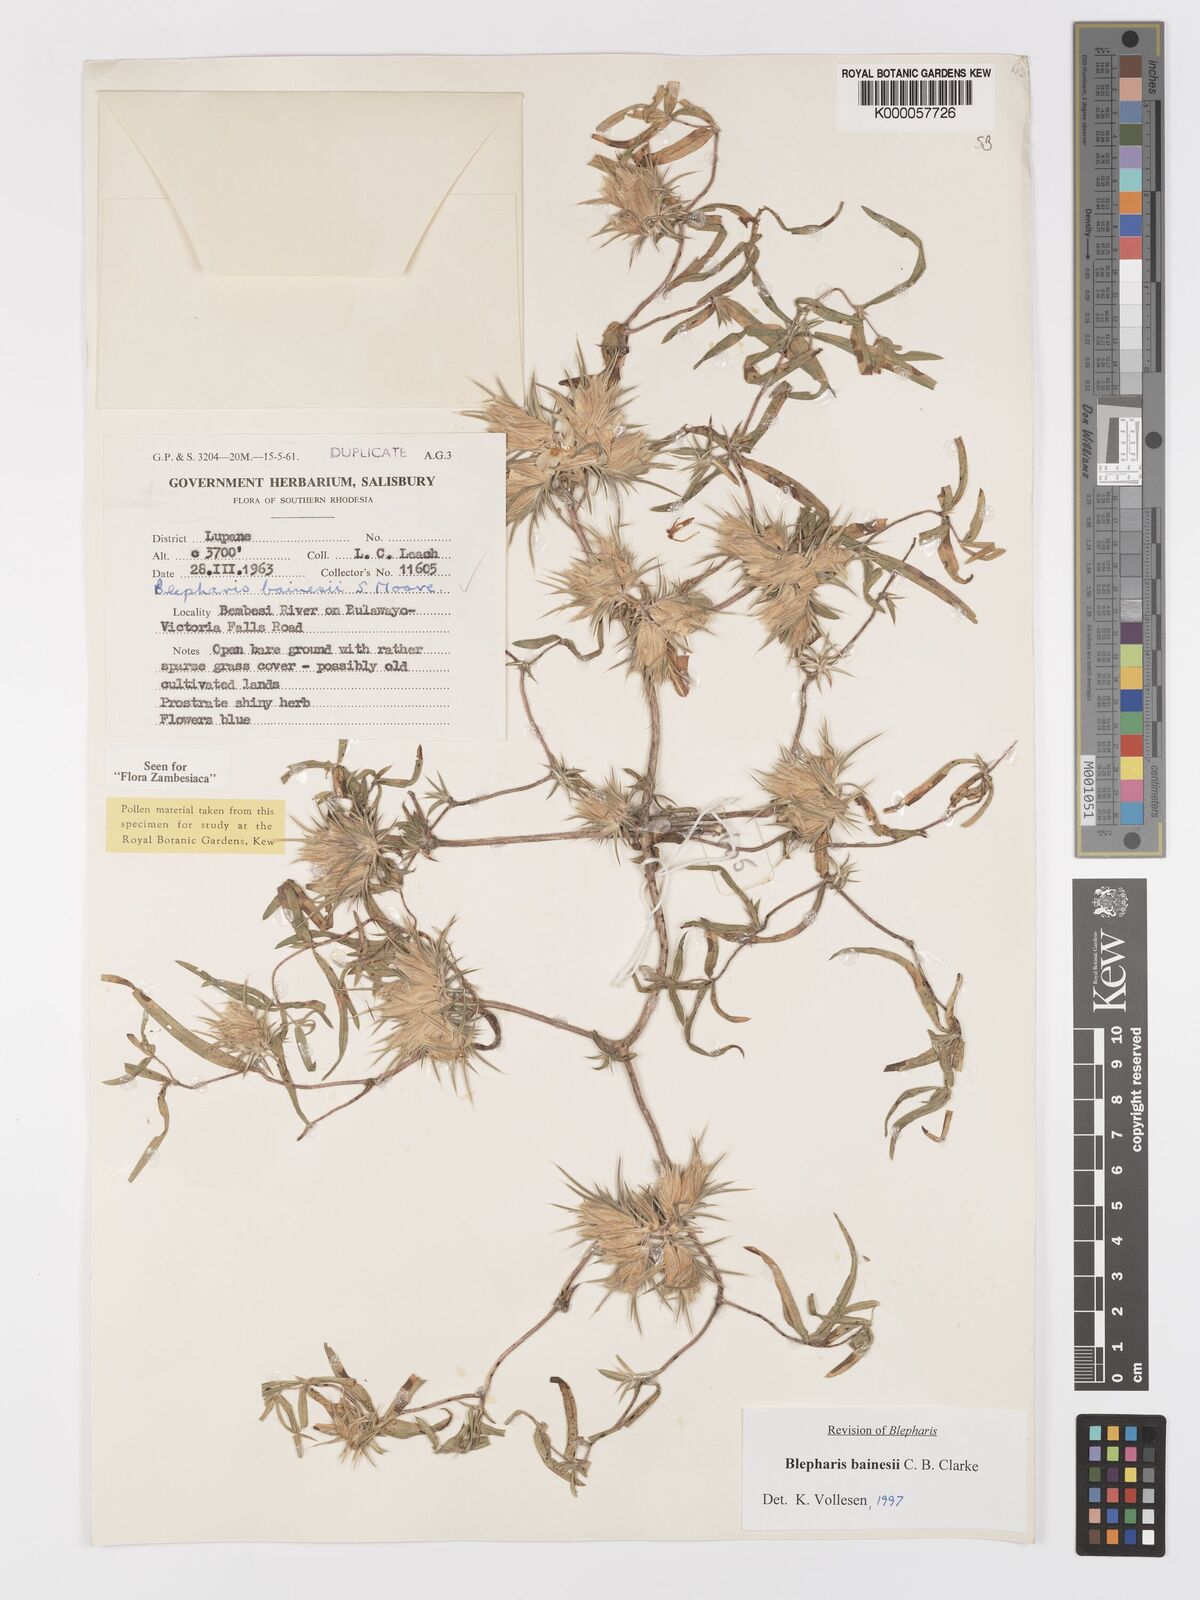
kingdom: Plantae
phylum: Tracheophyta
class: Magnoliopsida
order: Lamiales
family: Acanthaceae
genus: Blepharis
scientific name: Blepharis bainesii
